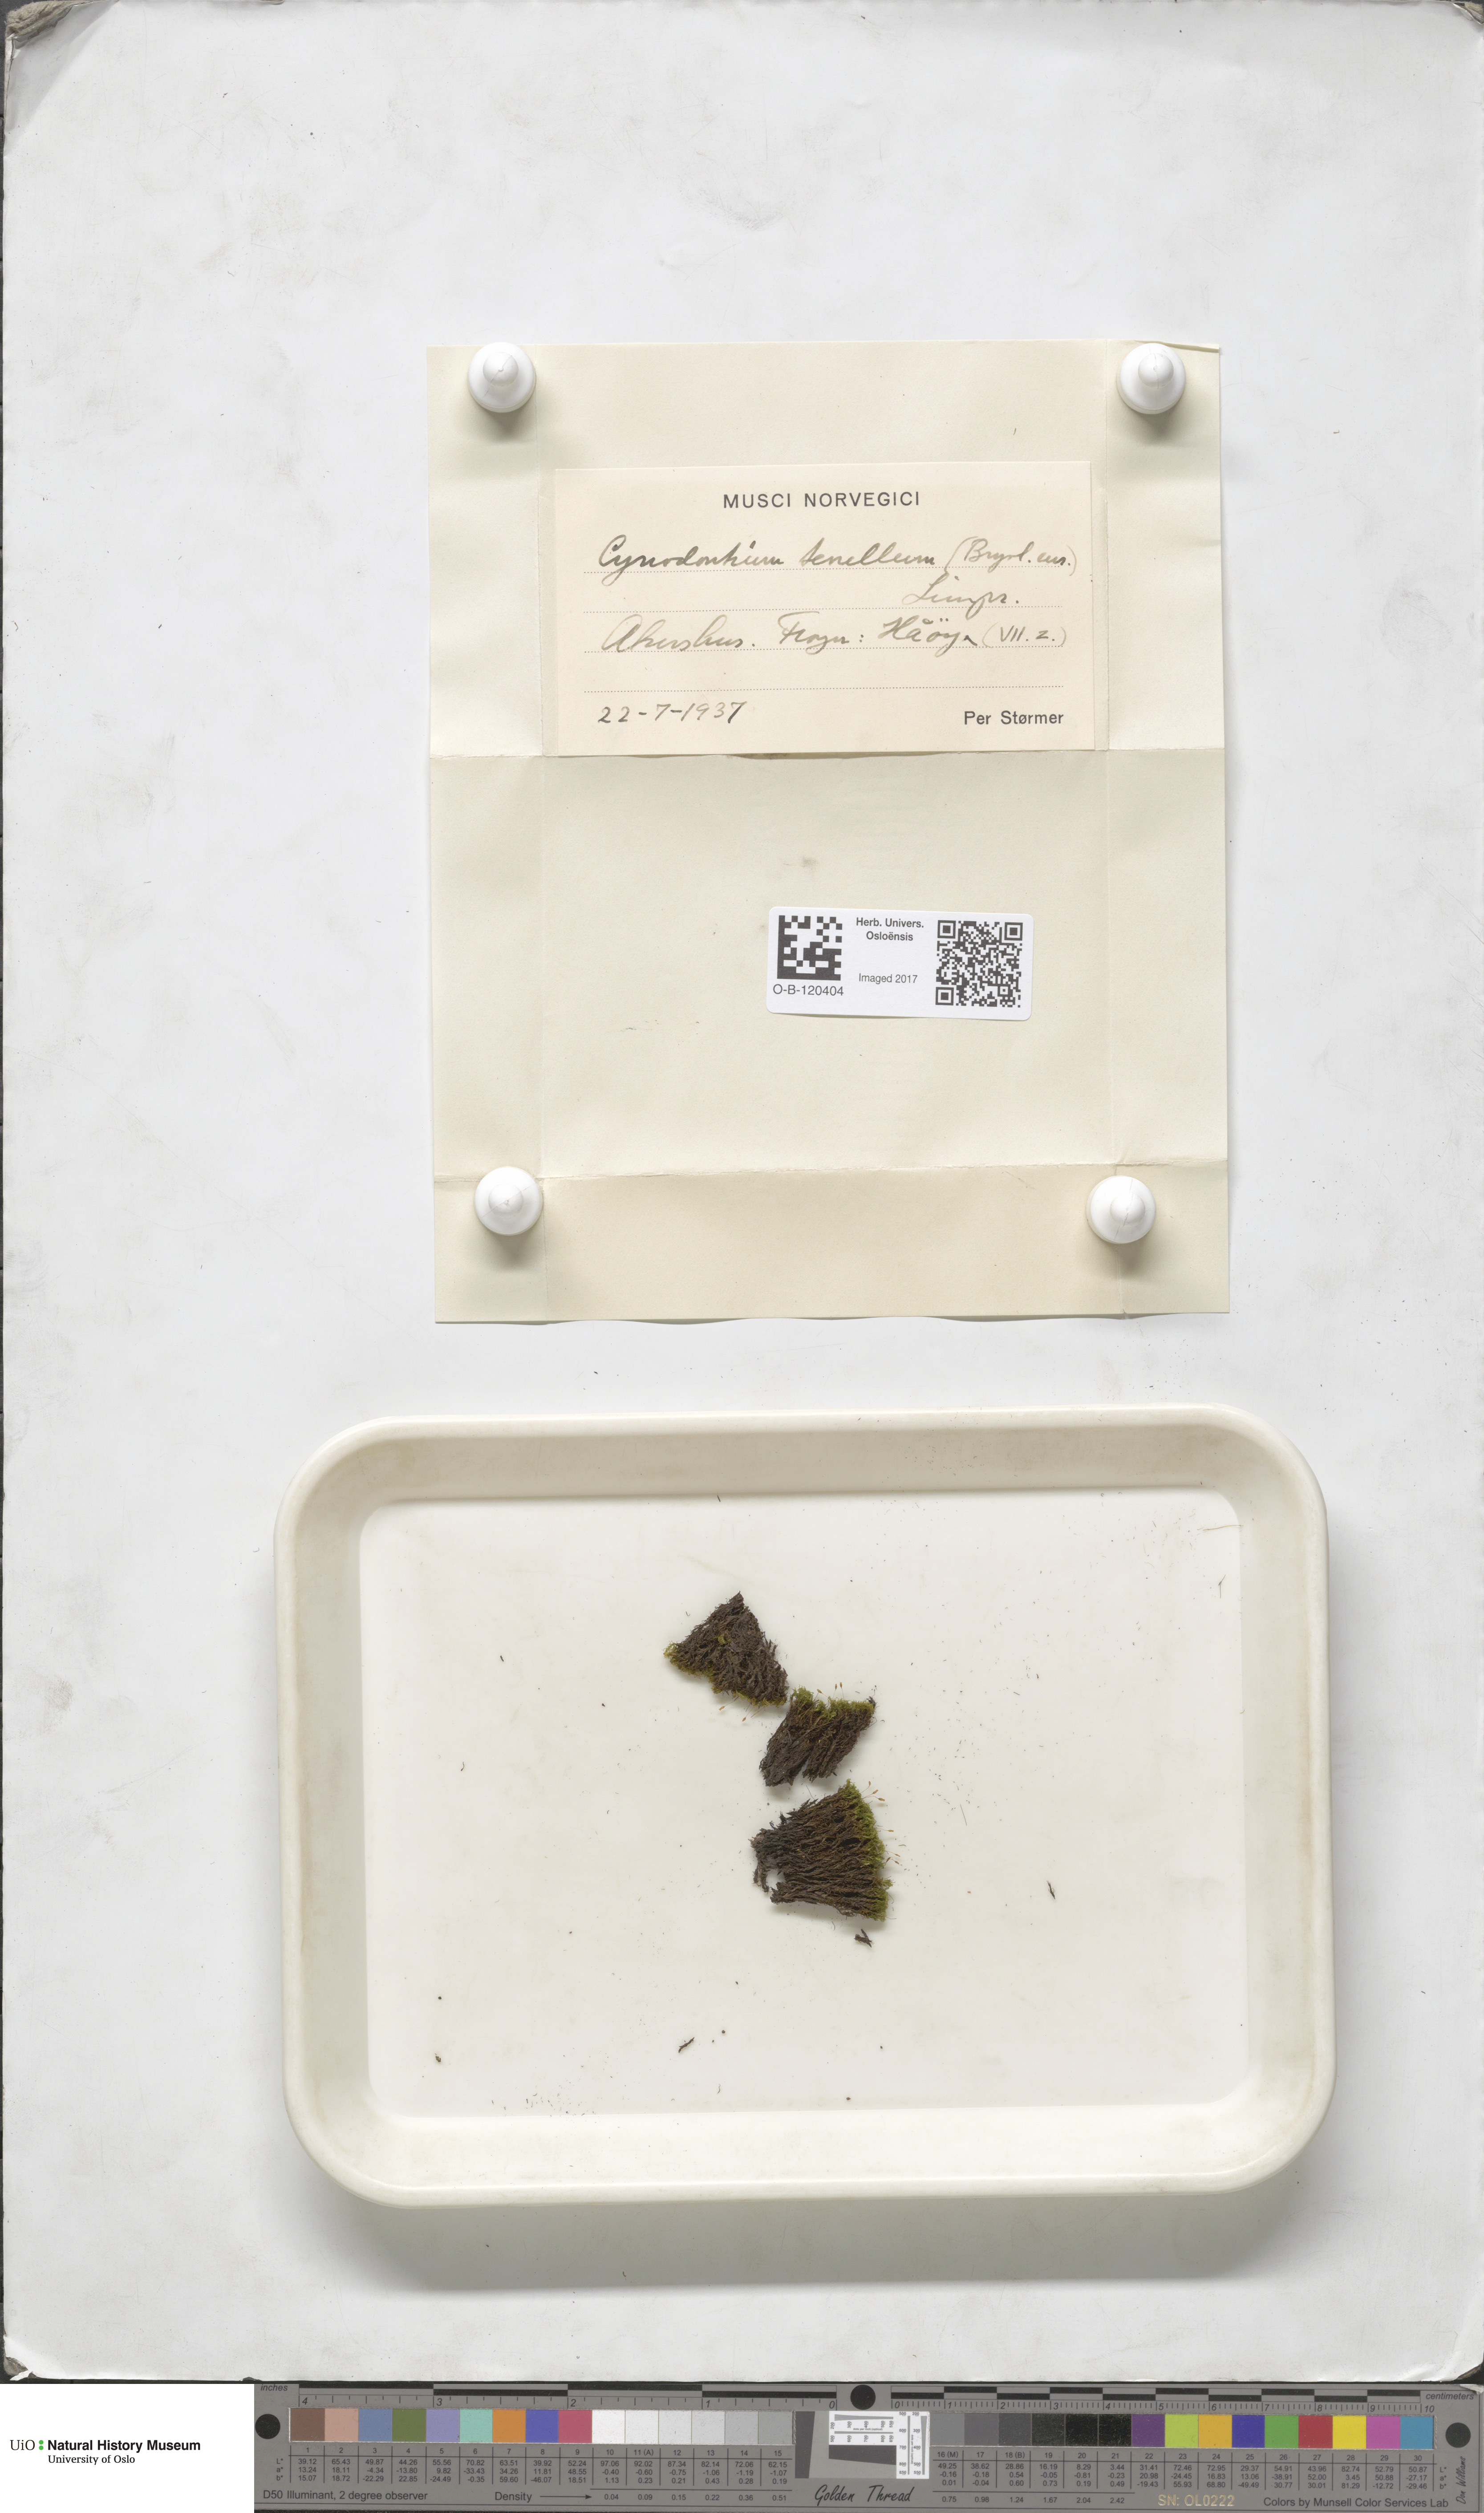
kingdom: Plantae
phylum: Bryophyta
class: Bryopsida
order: Dicranales
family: Rhabdoweisiaceae
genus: Cynodontium
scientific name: Cynodontium tenellum
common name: Delicate dogtooth moss
